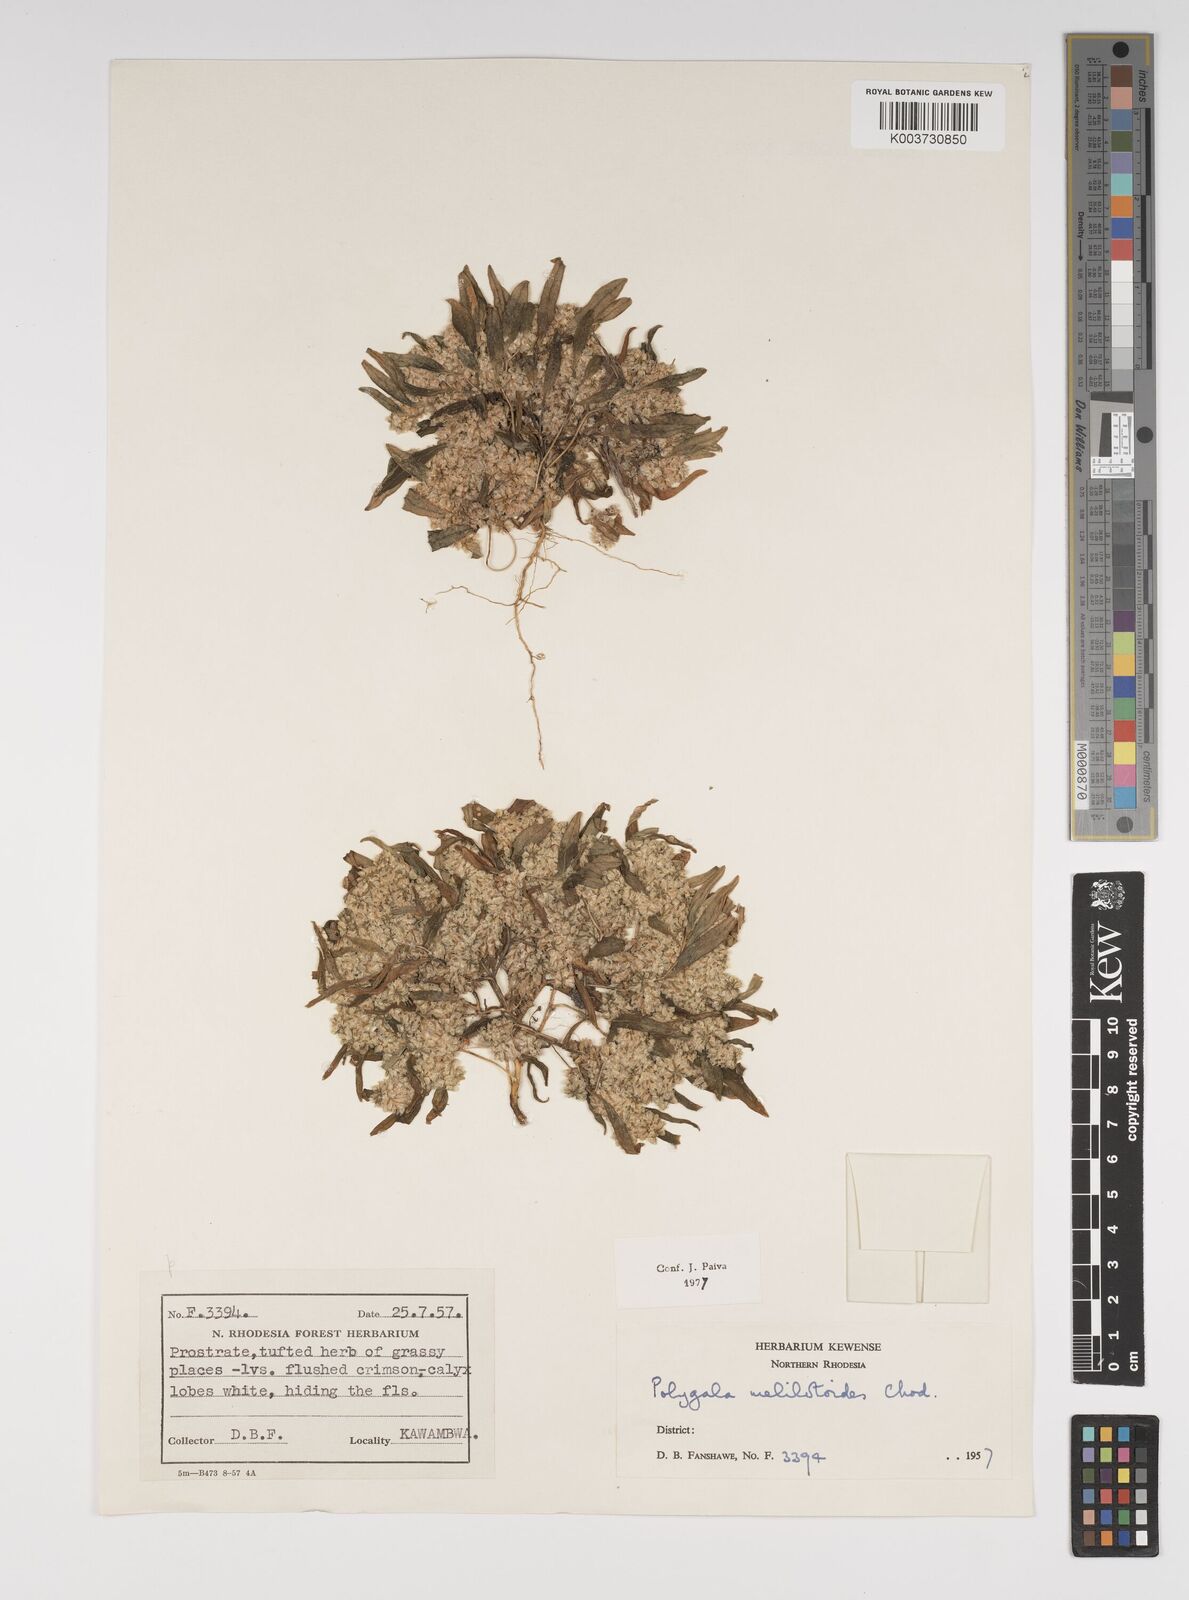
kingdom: Plantae
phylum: Tracheophyta
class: Magnoliopsida
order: Fabales
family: Polygalaceae
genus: Polygala
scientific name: Polygala melilotoides
